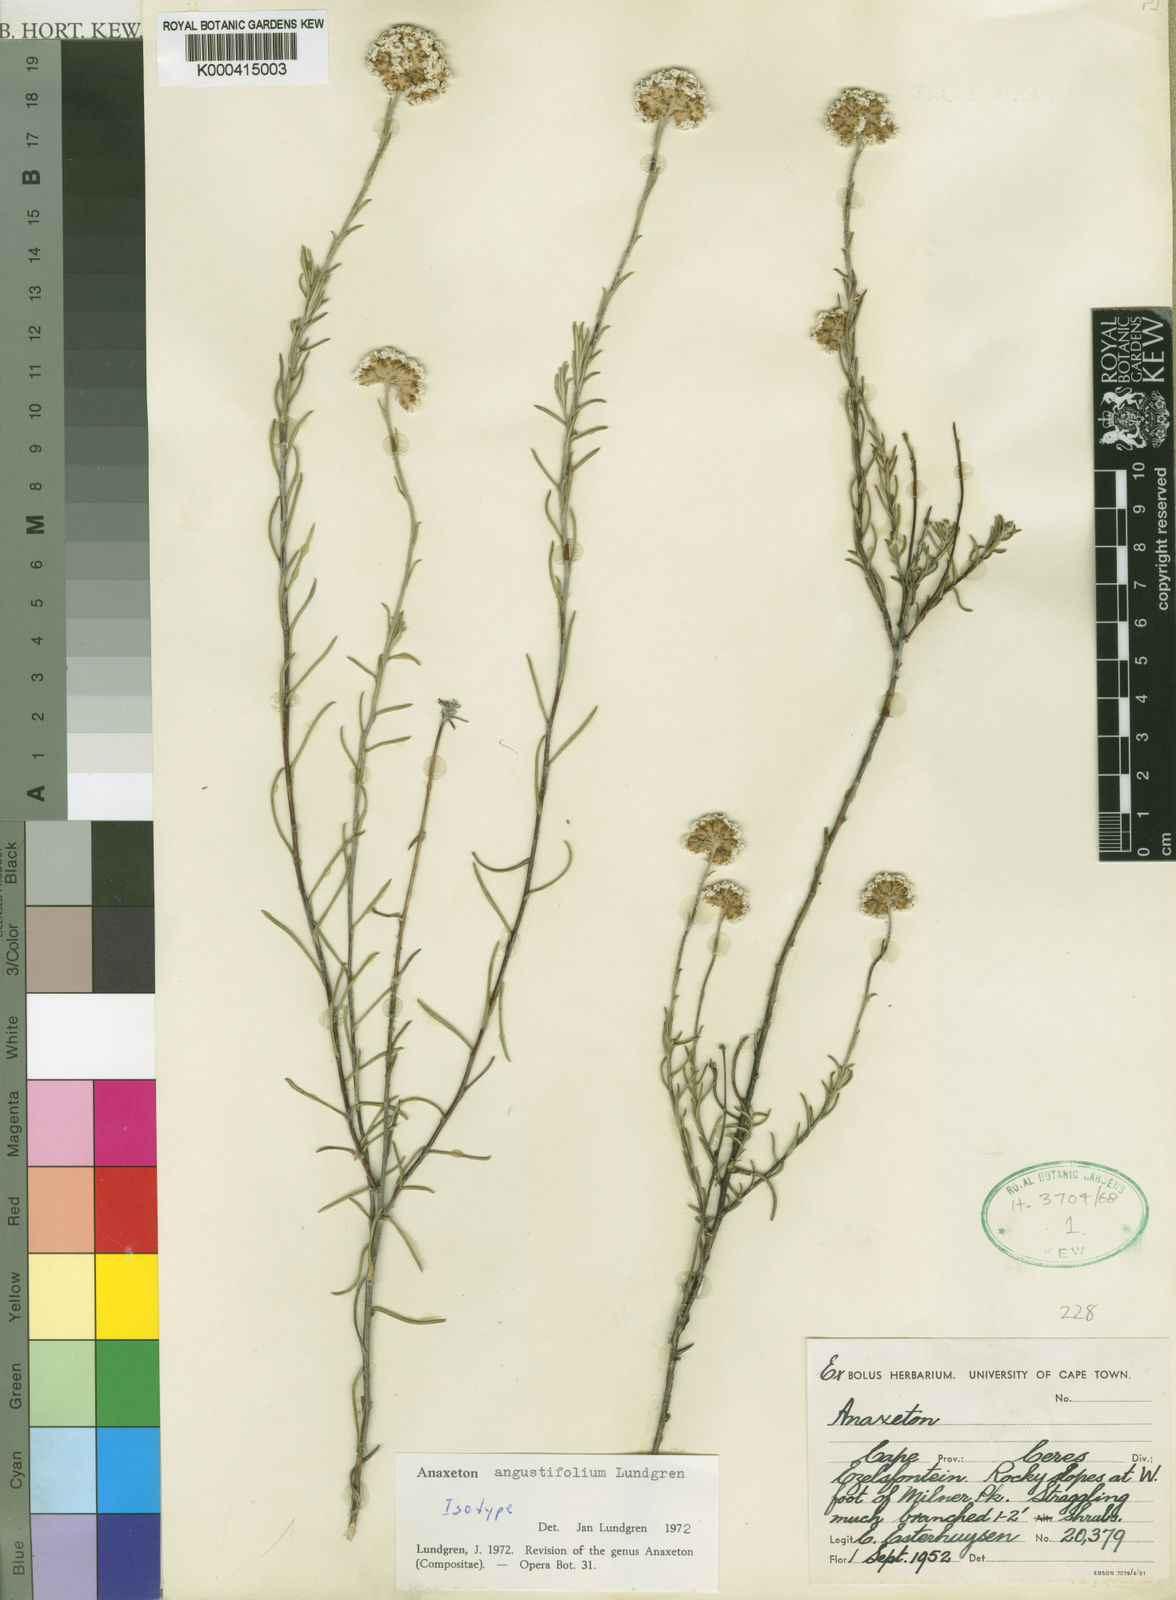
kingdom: Plantae
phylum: Tracheophyta
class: Magnoliopsida
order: Asterales
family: Asteraceae
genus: Anaxeton
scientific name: Anaxeton angustifolium
